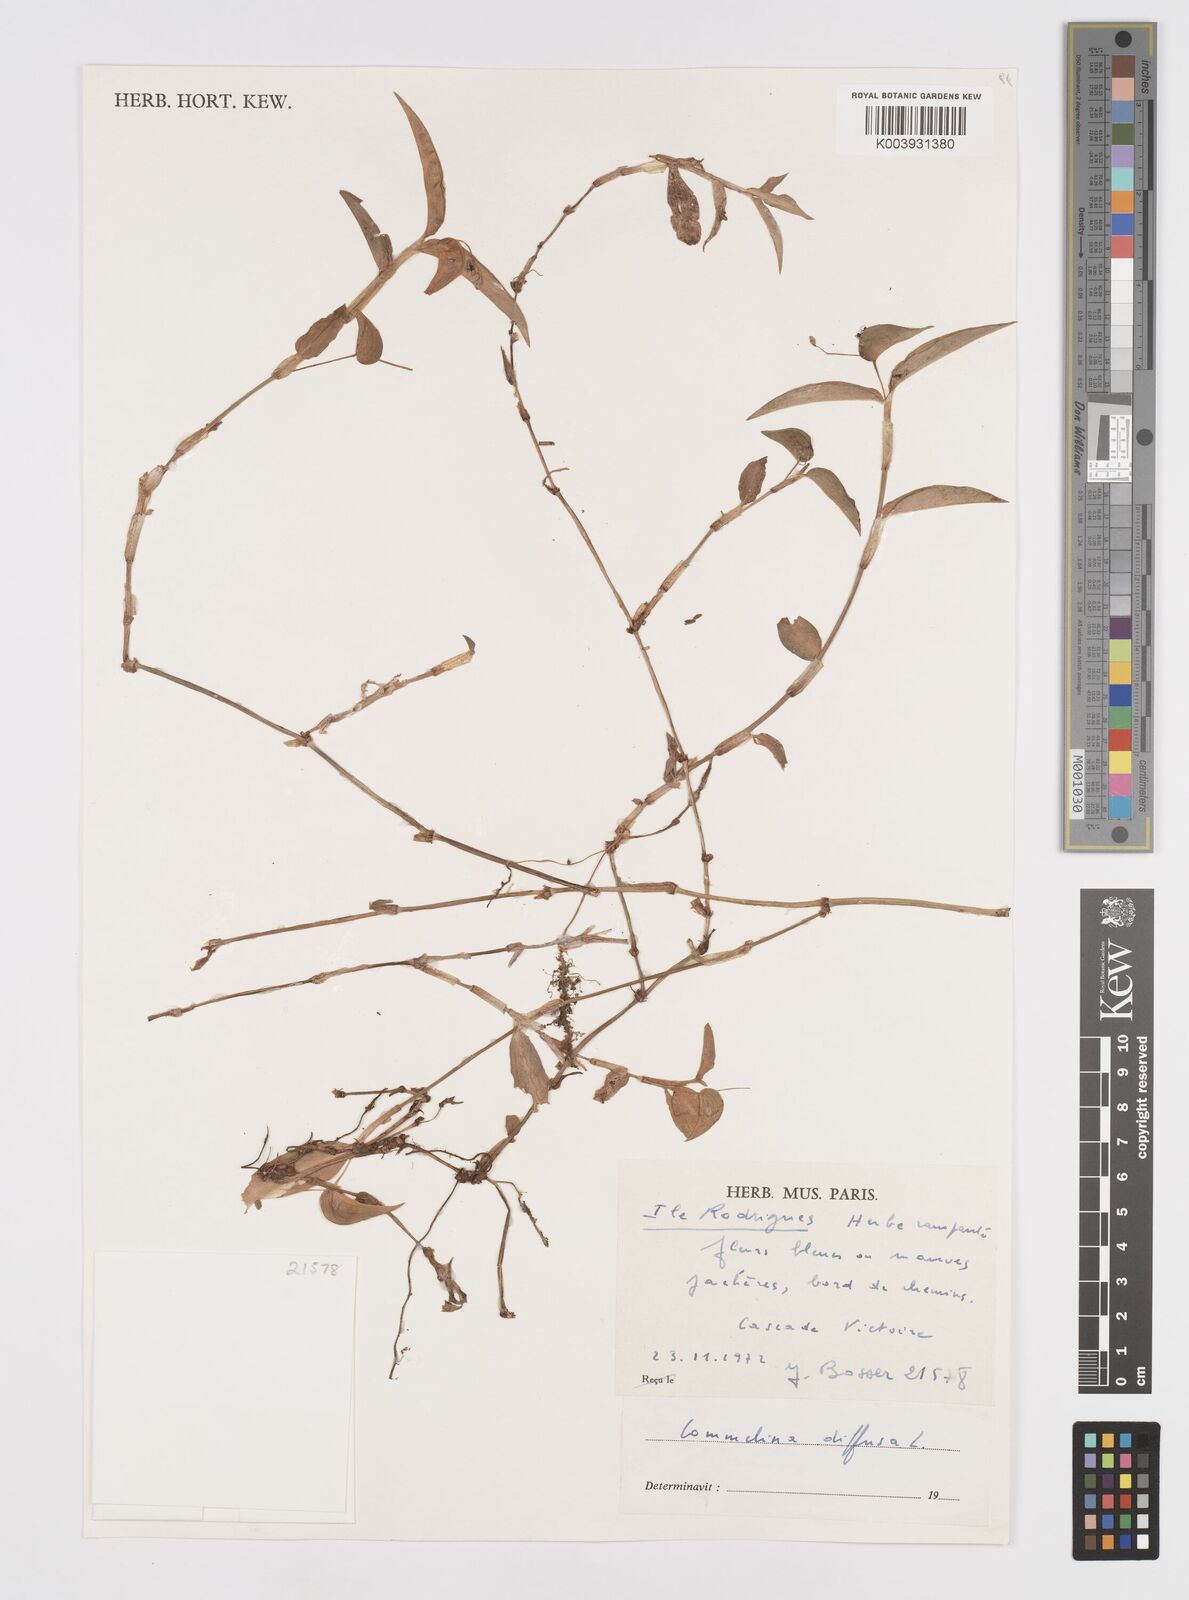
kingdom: Plantae
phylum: Tracheophyta
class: Liliopsida
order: Commelinales
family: Commelinaceae
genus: Murdannia
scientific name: Murdannia nudiflora
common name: Nakedstem dewflower
